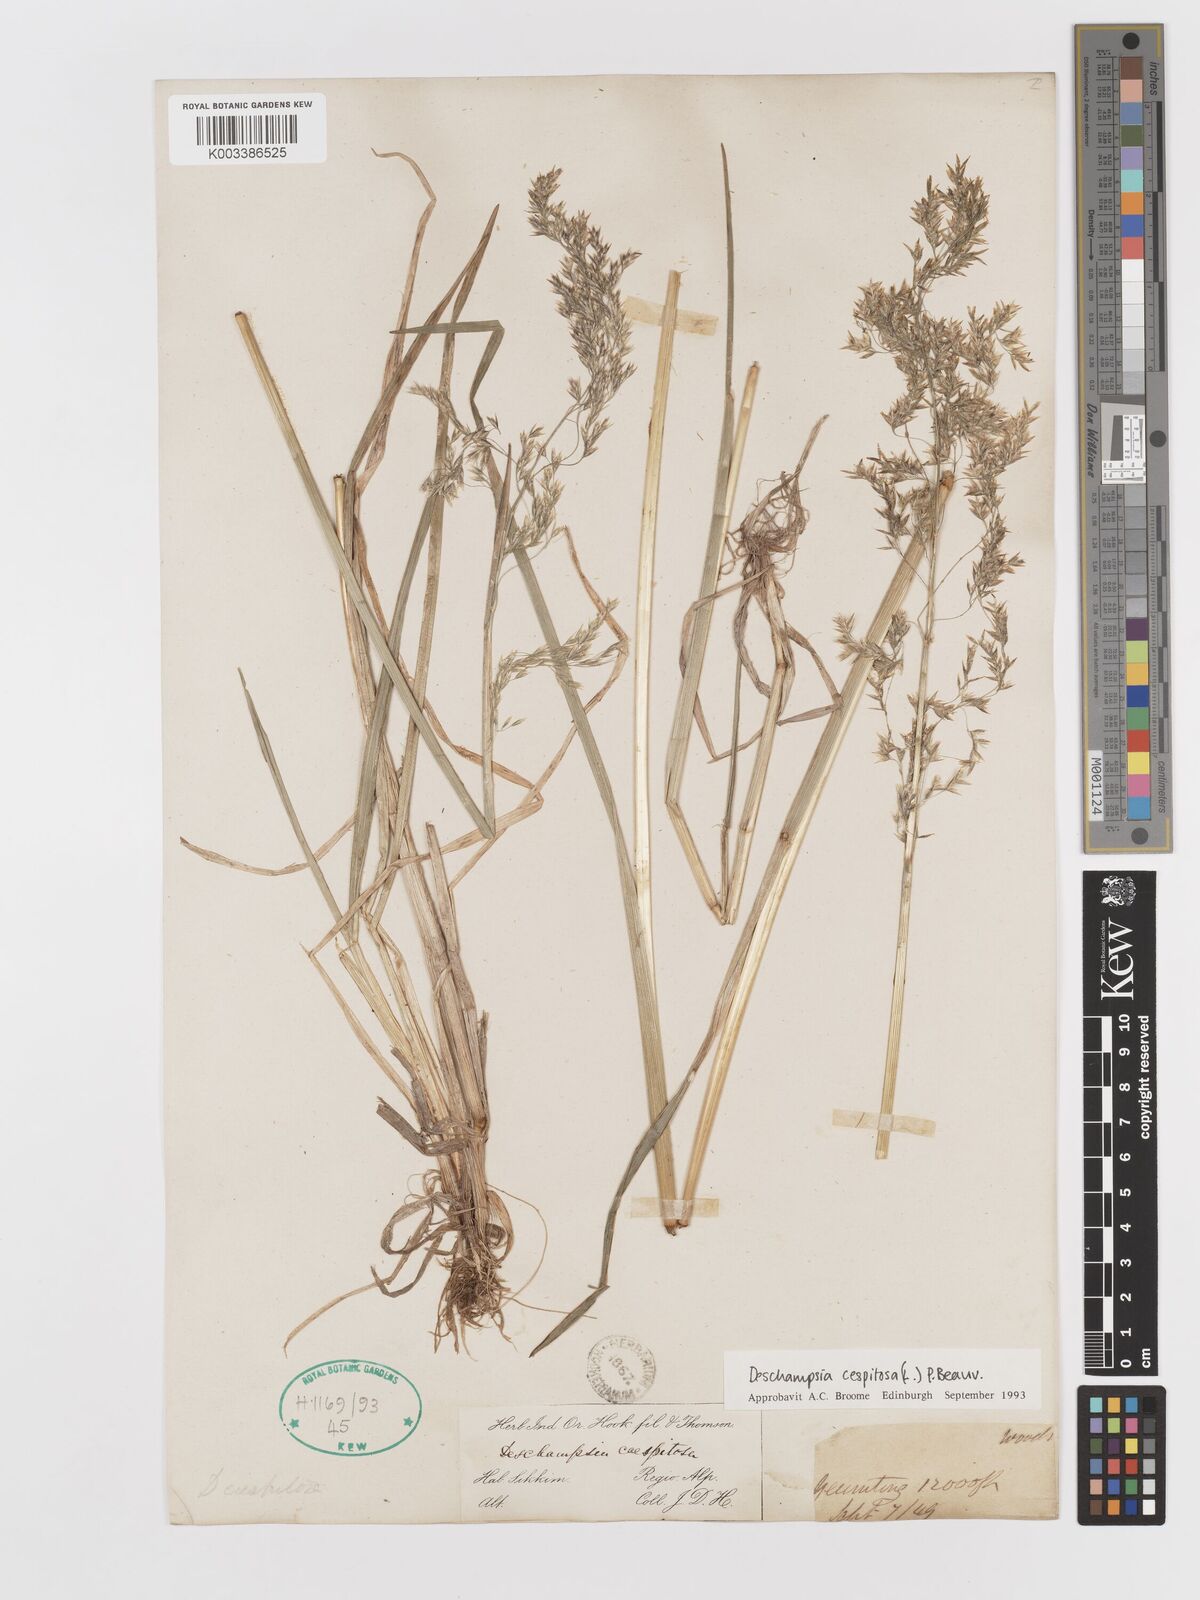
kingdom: Plantae
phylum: Tracheophyta
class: Liliopsida
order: Poales
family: Poaceae
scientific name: Poaceae
